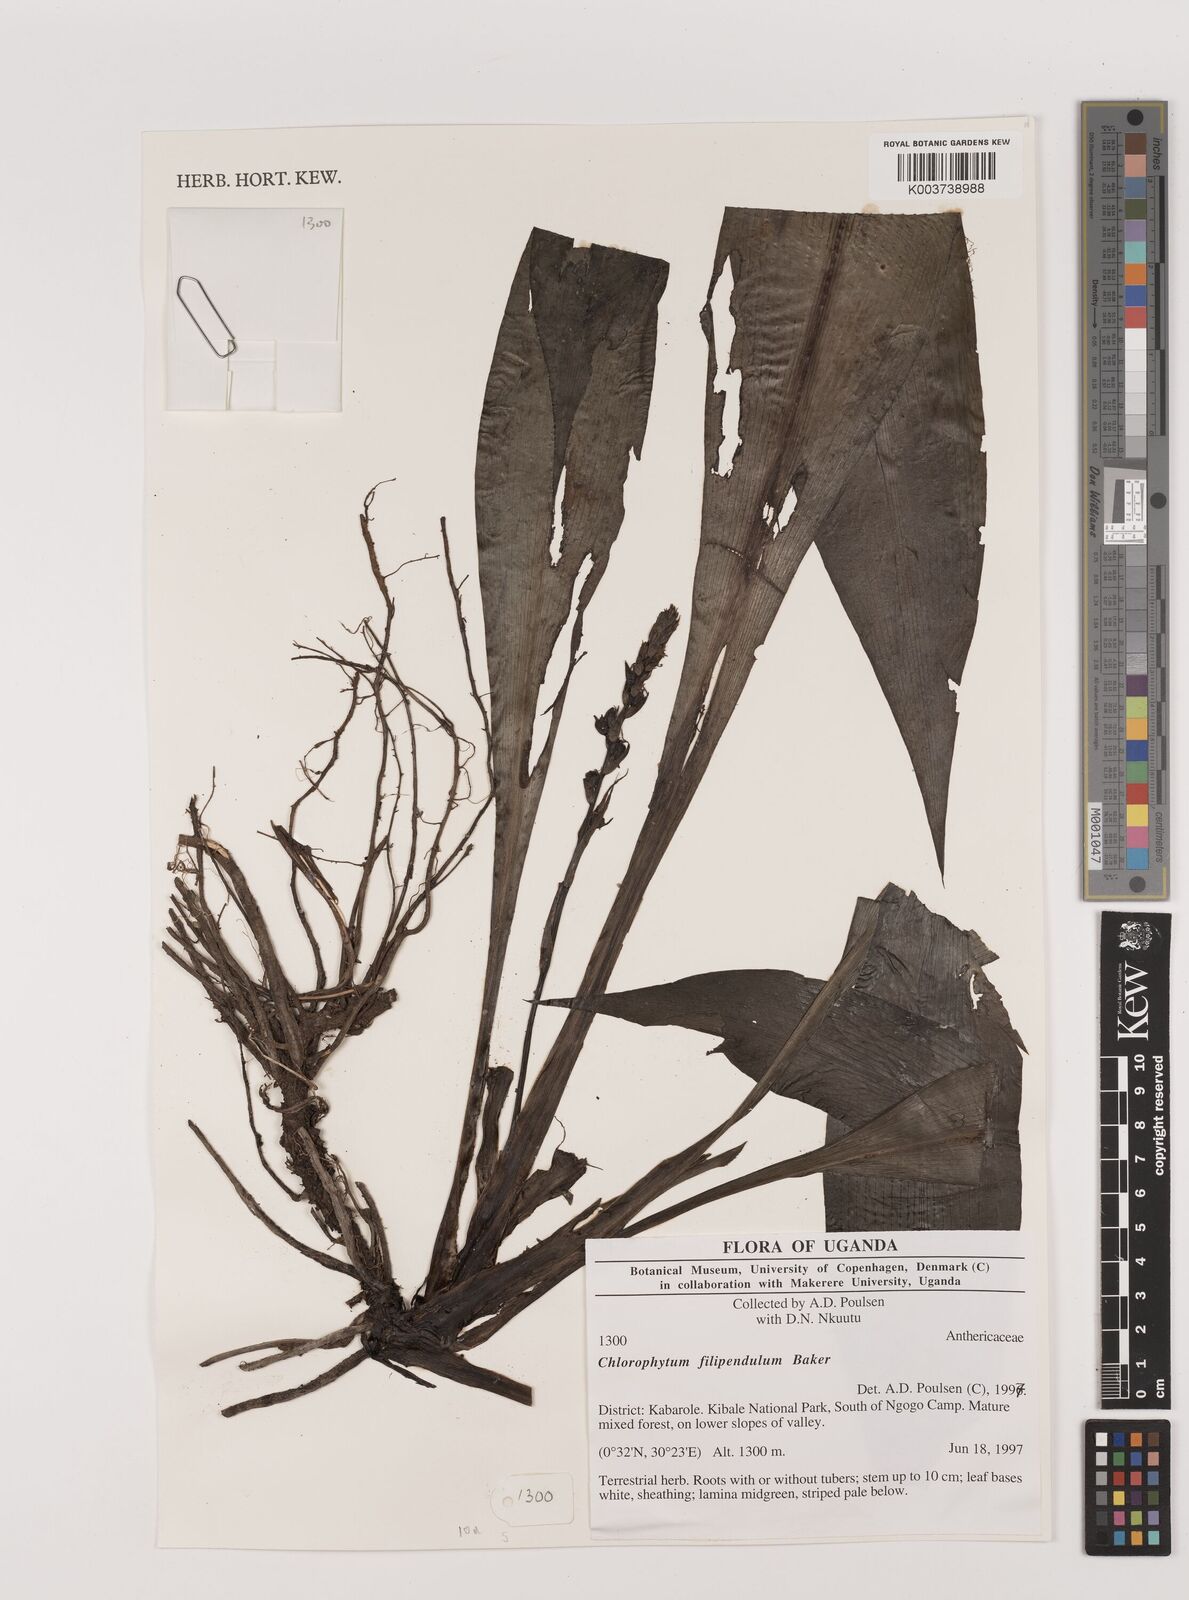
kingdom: Plantae
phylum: Tracheophyta
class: Liliopsida
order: Asparagales
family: Asparagaceae
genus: Chlorophytum
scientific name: Chlorophytum filipendulum
